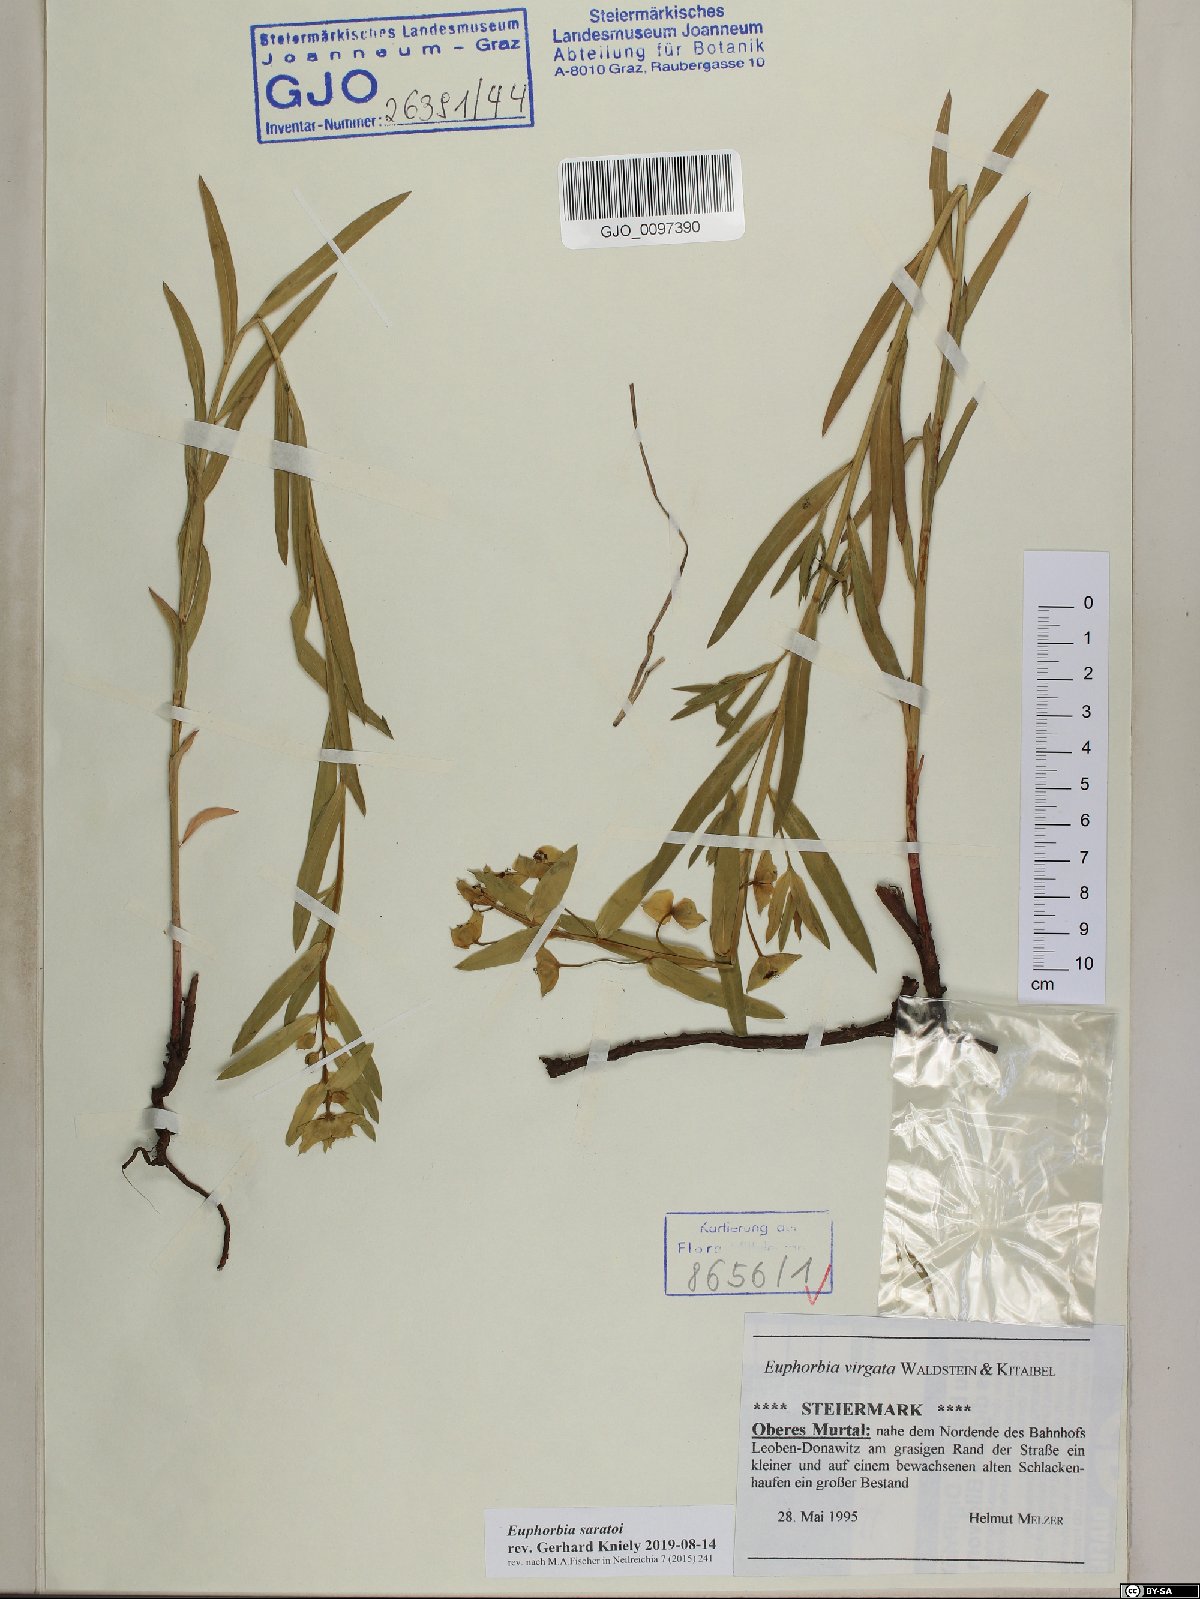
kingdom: Plantae
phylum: Tracheophyta
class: Magnoliopsida
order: Malpighiales
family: Euphorbiaceae
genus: Euphorbia
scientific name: Euphorbia saratoi
